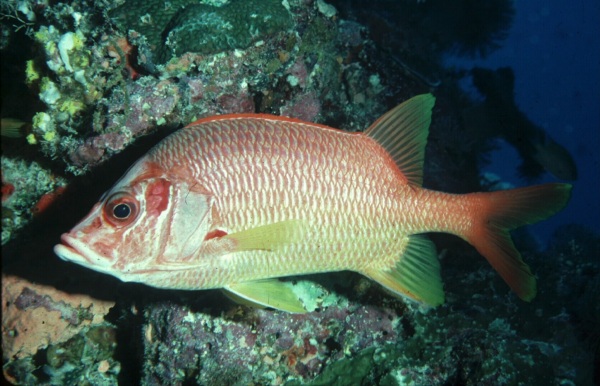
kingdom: Animalia
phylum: Chordata
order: Beryciformes
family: Holocentridae
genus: Sargocentron
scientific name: Sargocentron spiniferum
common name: Giant squirrelfish
